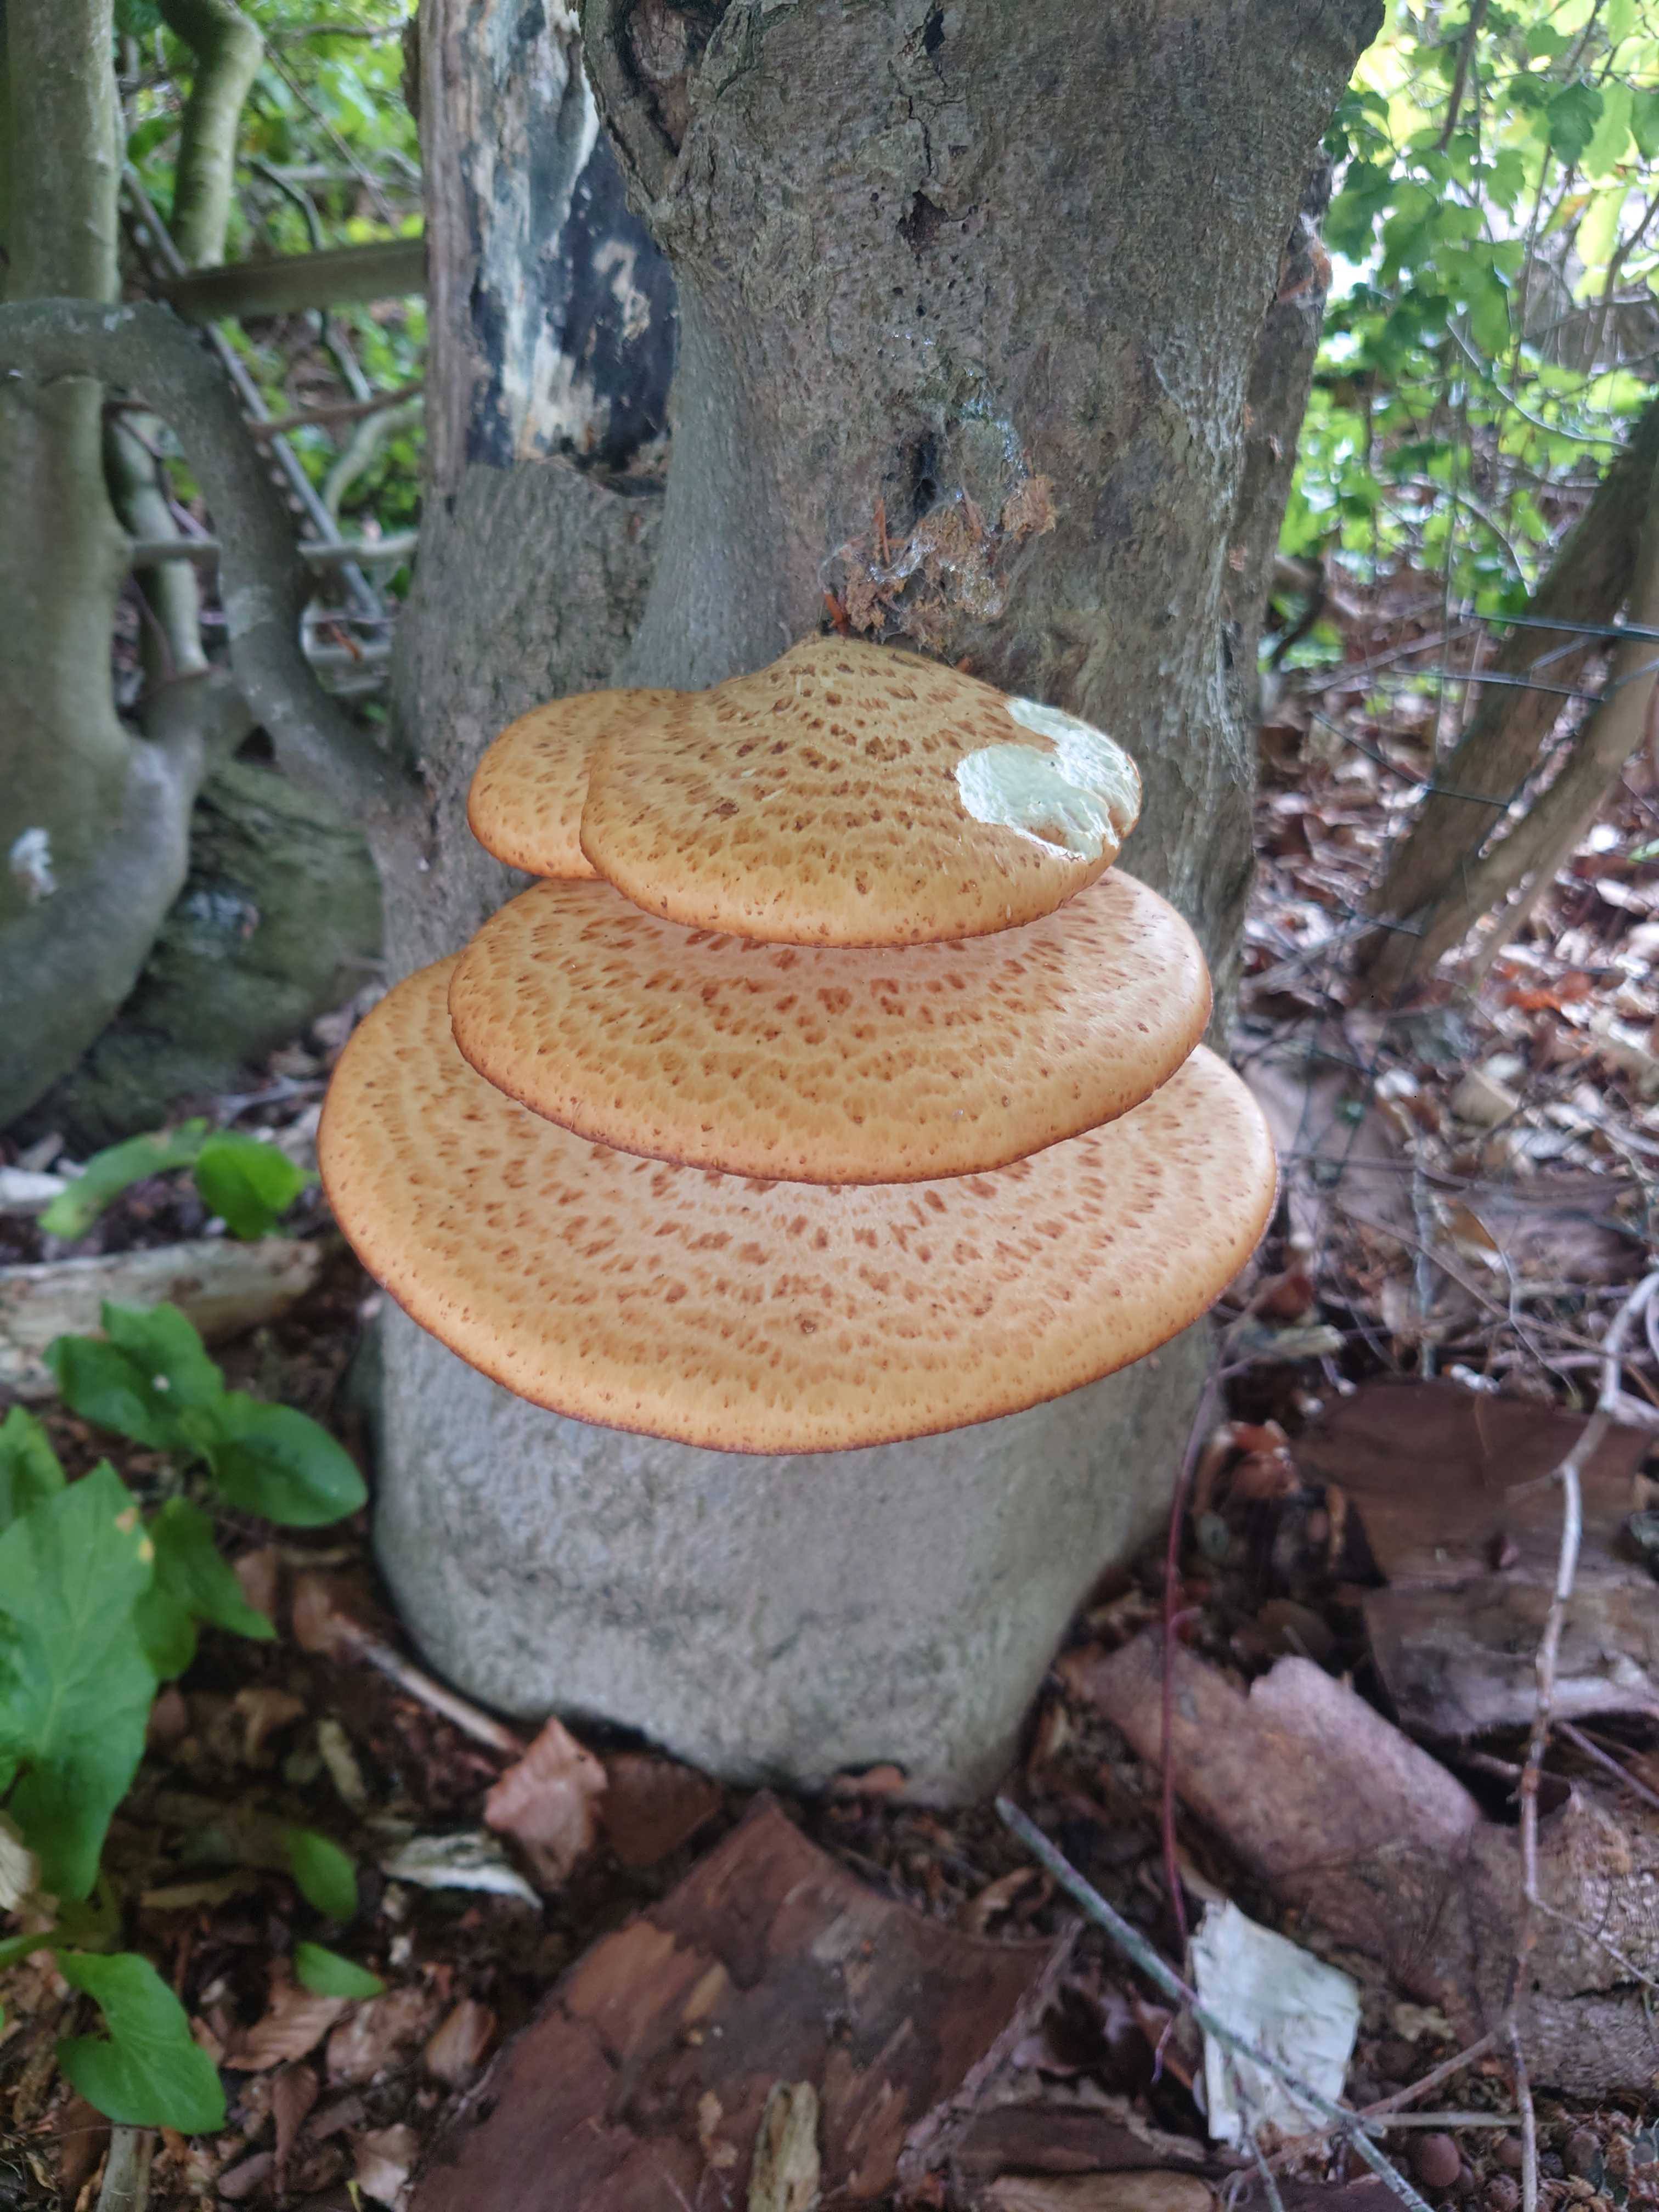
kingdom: Fungi
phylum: Basidiomycota
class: Agaricomycetes
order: Polyporales
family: Polyporaceae
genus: Cerioporus
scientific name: Cerioporus squamosus
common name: skællet stilkporesvamp
